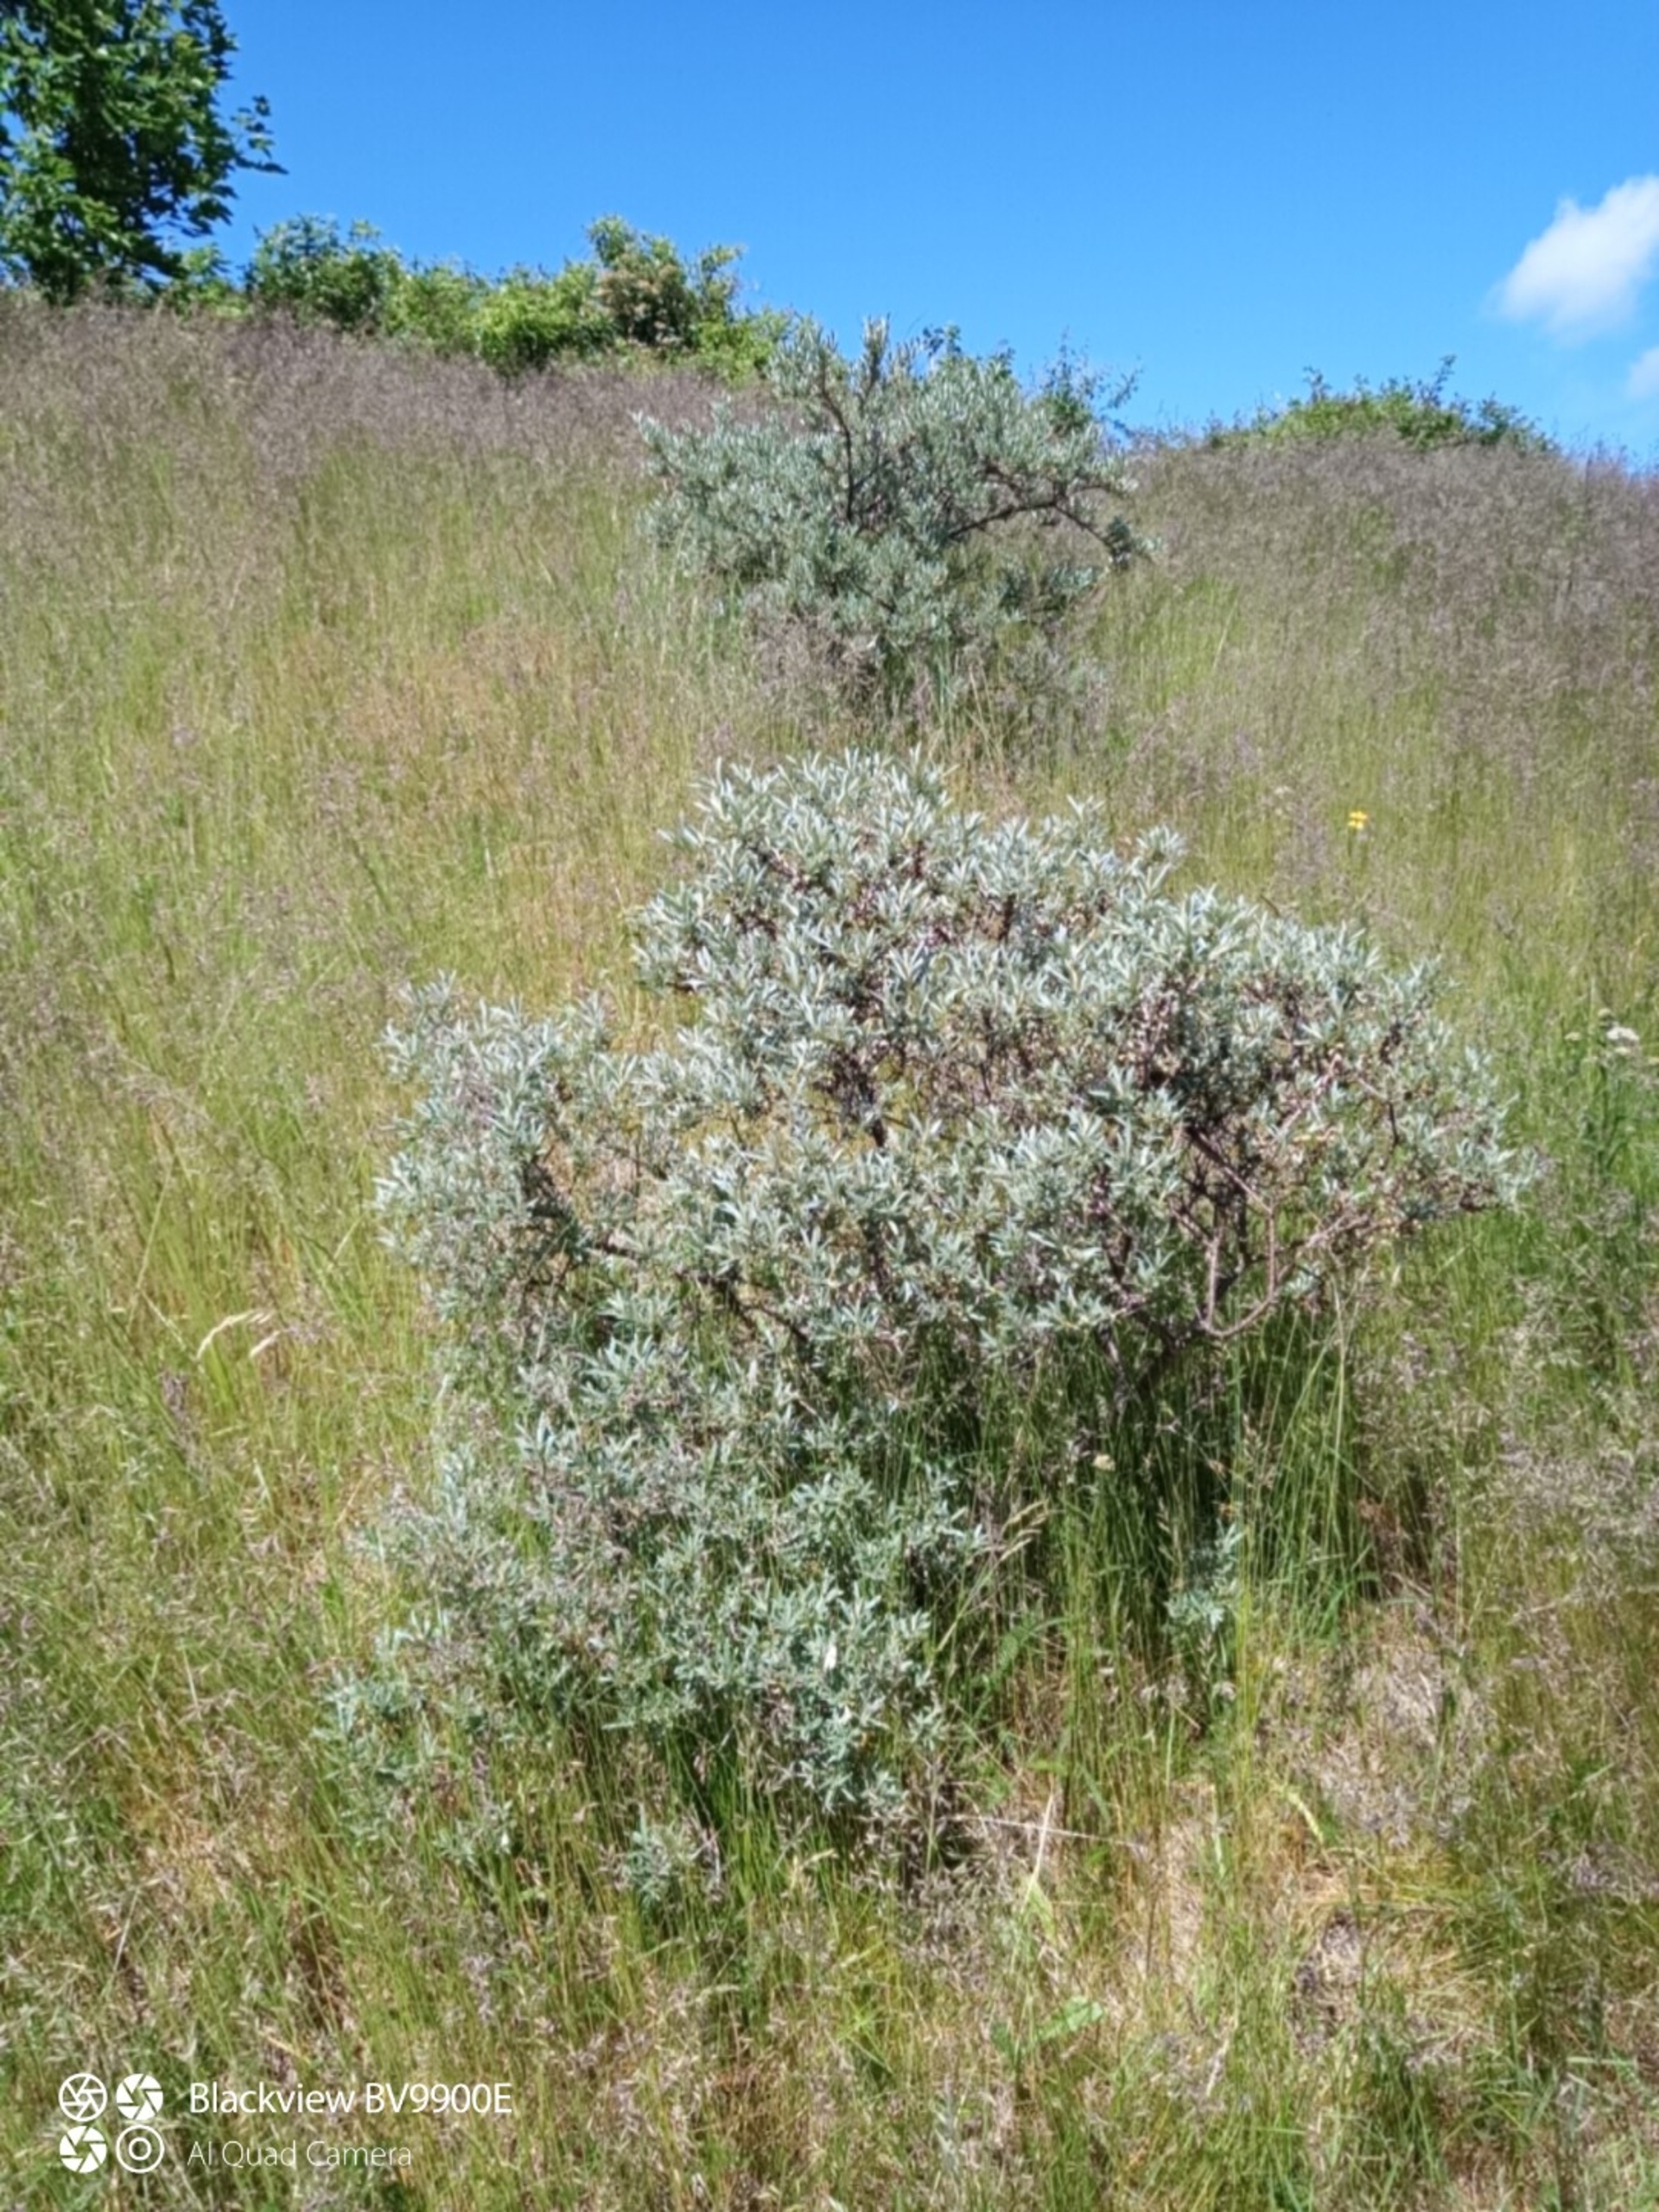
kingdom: Plantae
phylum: Tracheophyta
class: Magnoliopsida
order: Rosales
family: Elaeagnaceae
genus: Hippophae
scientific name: Hippophae rhamnoides
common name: Havtorn
